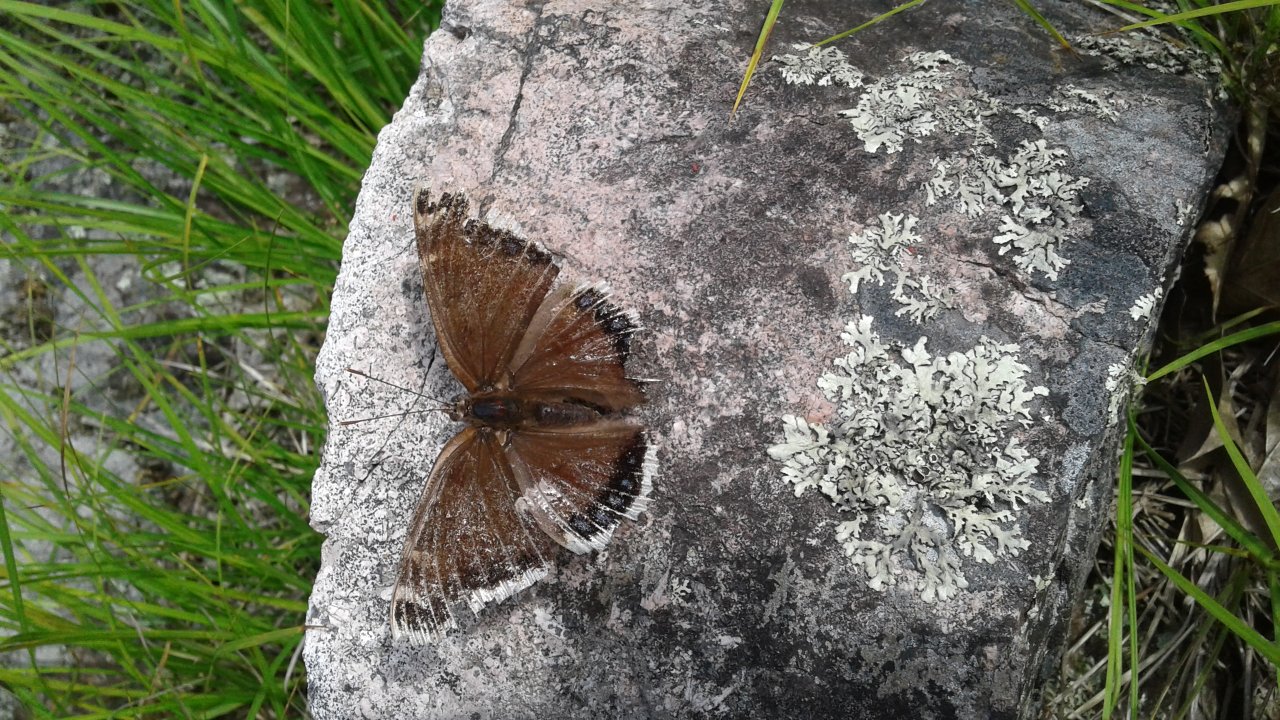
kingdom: Animalia
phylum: Arthropoda
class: Insecta
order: Lepidoptera
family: Nymphalidae
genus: Nymphalis
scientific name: Nymphalis antiopa
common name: Mourning Cloak
